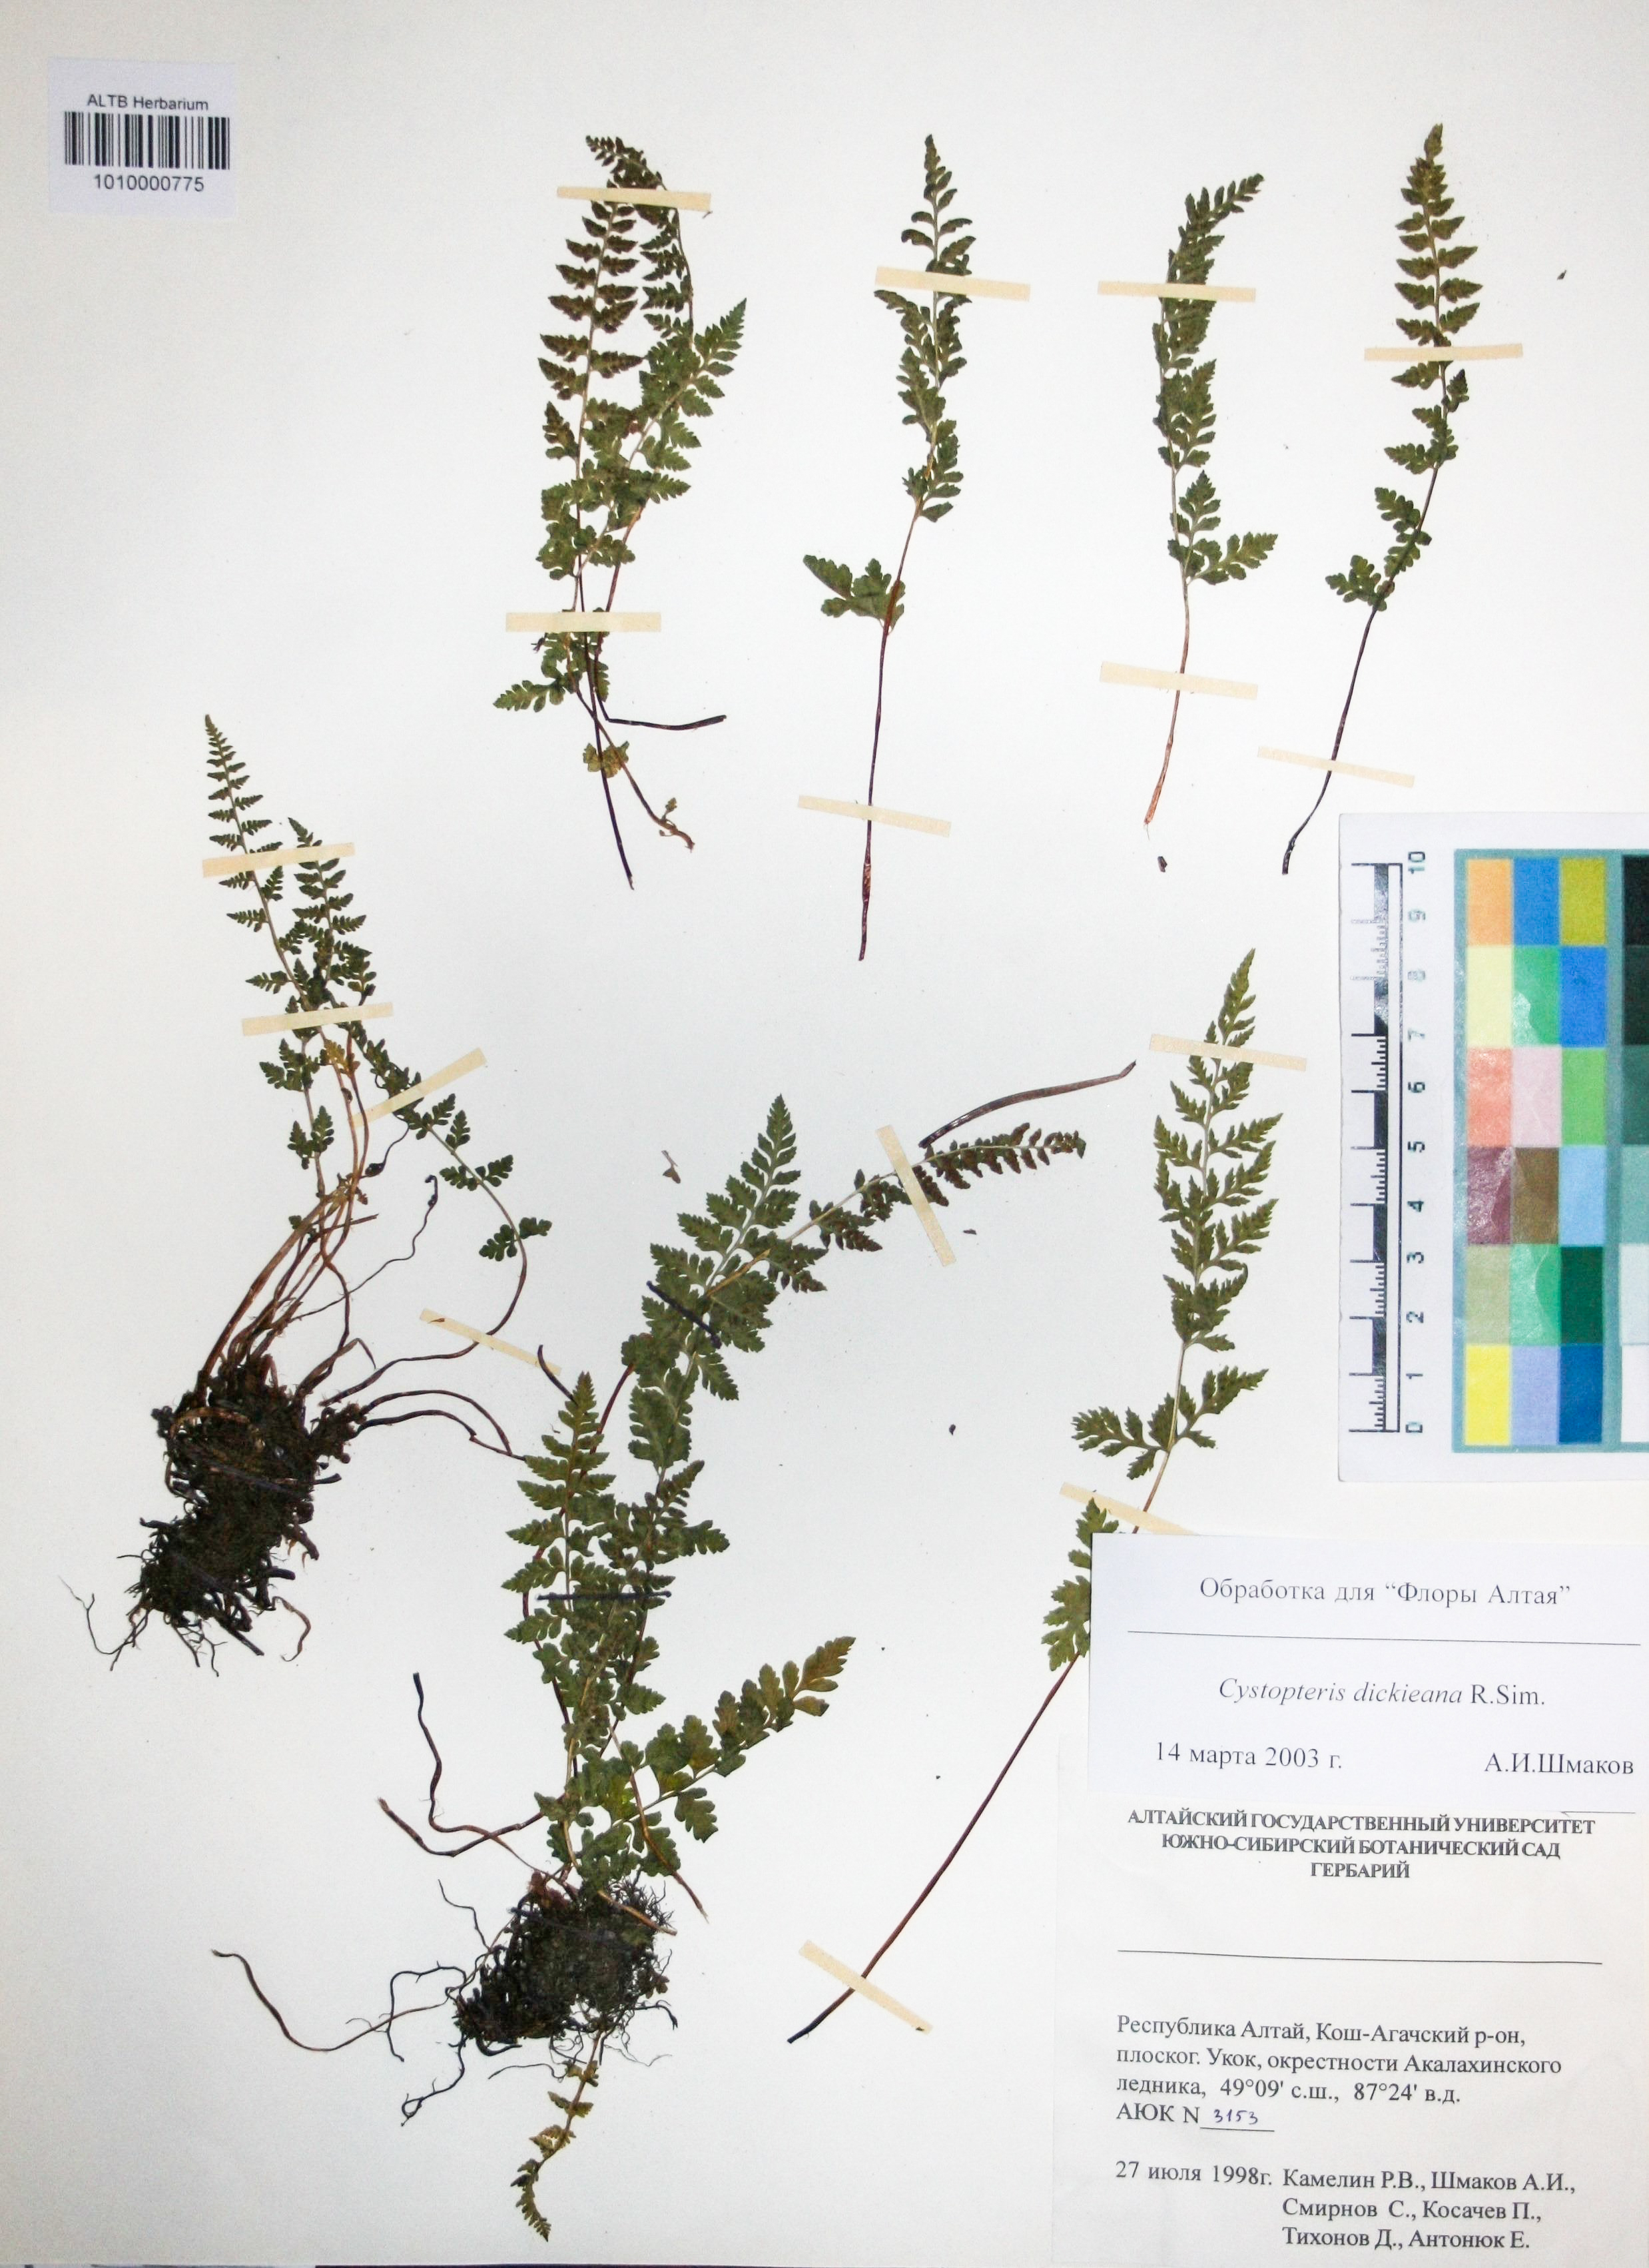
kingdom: Plantae
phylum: Tracheophyta
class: Polypodiopsida
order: Polypodiales
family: Cystopteridaceae
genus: Cystopteris
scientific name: Cystopteris dickieana
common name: Dickie's bladder-fern
